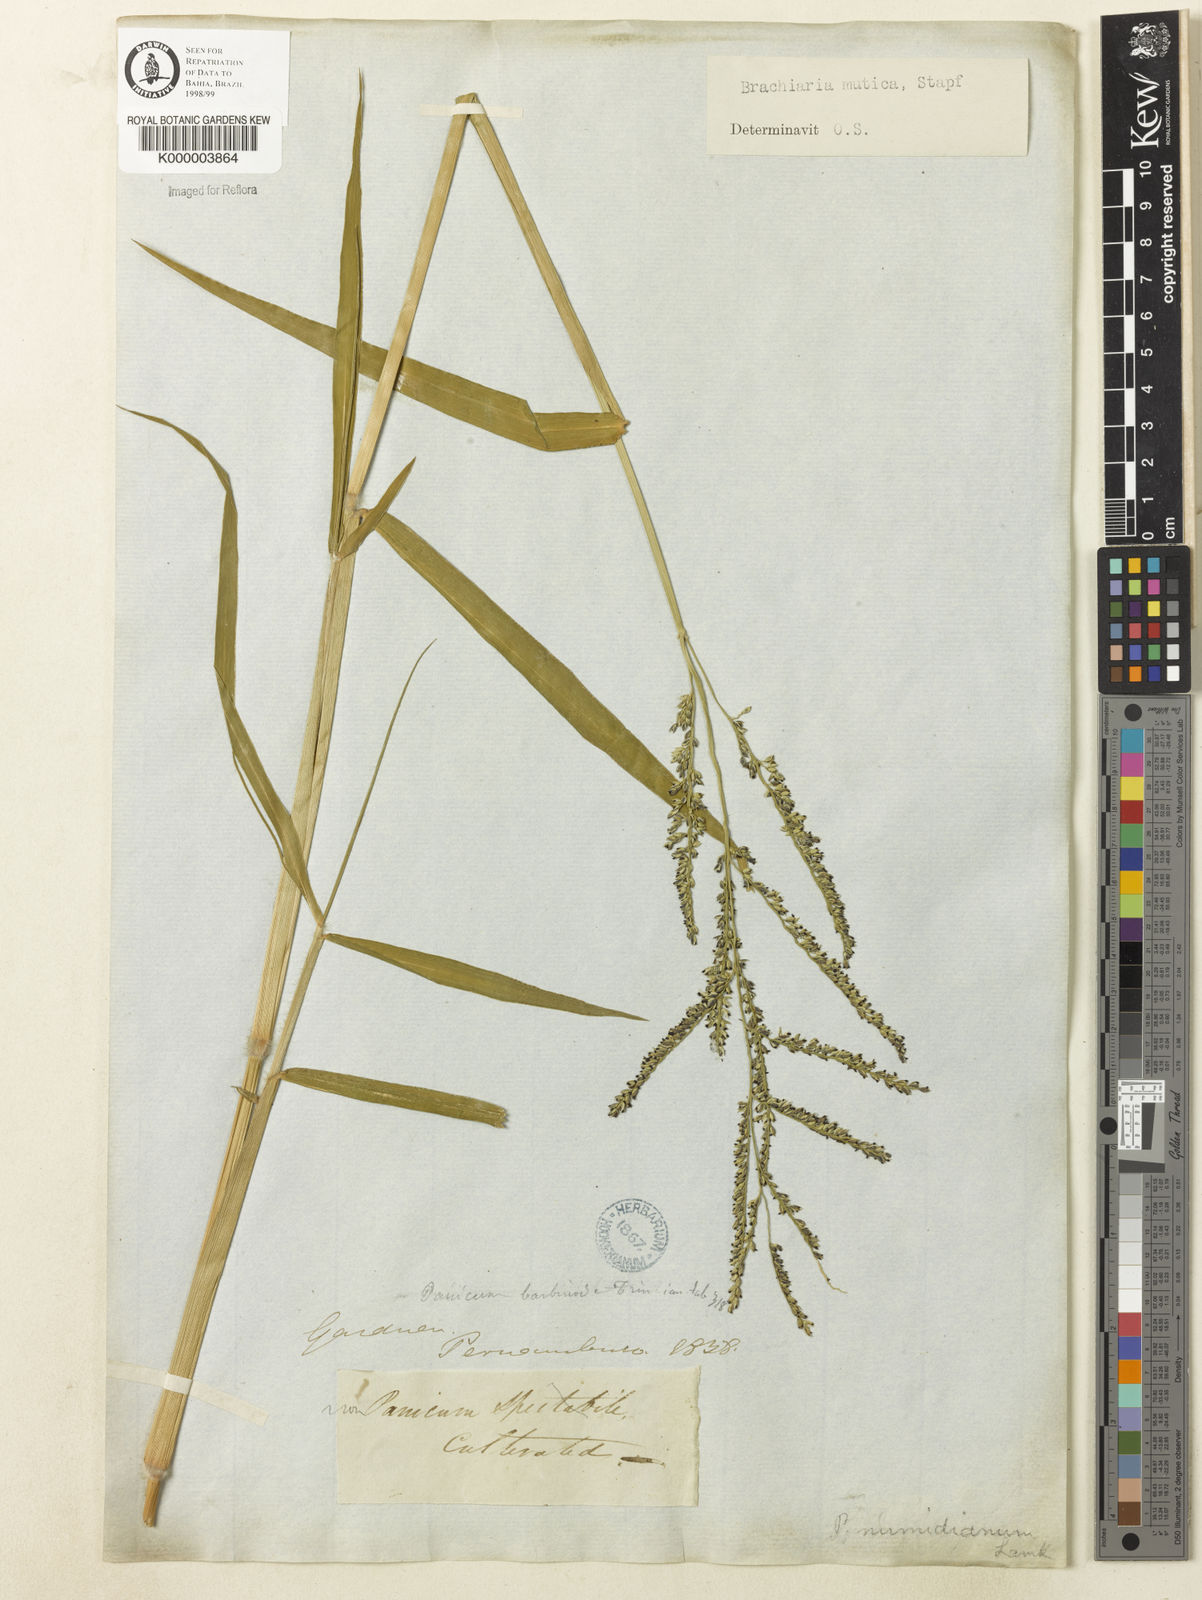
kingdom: Plantae
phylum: Tracheophyta
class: Liliopsida
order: Poales
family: Poaceae
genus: Urochloa
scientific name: Urochloa mutica
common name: Para grass
